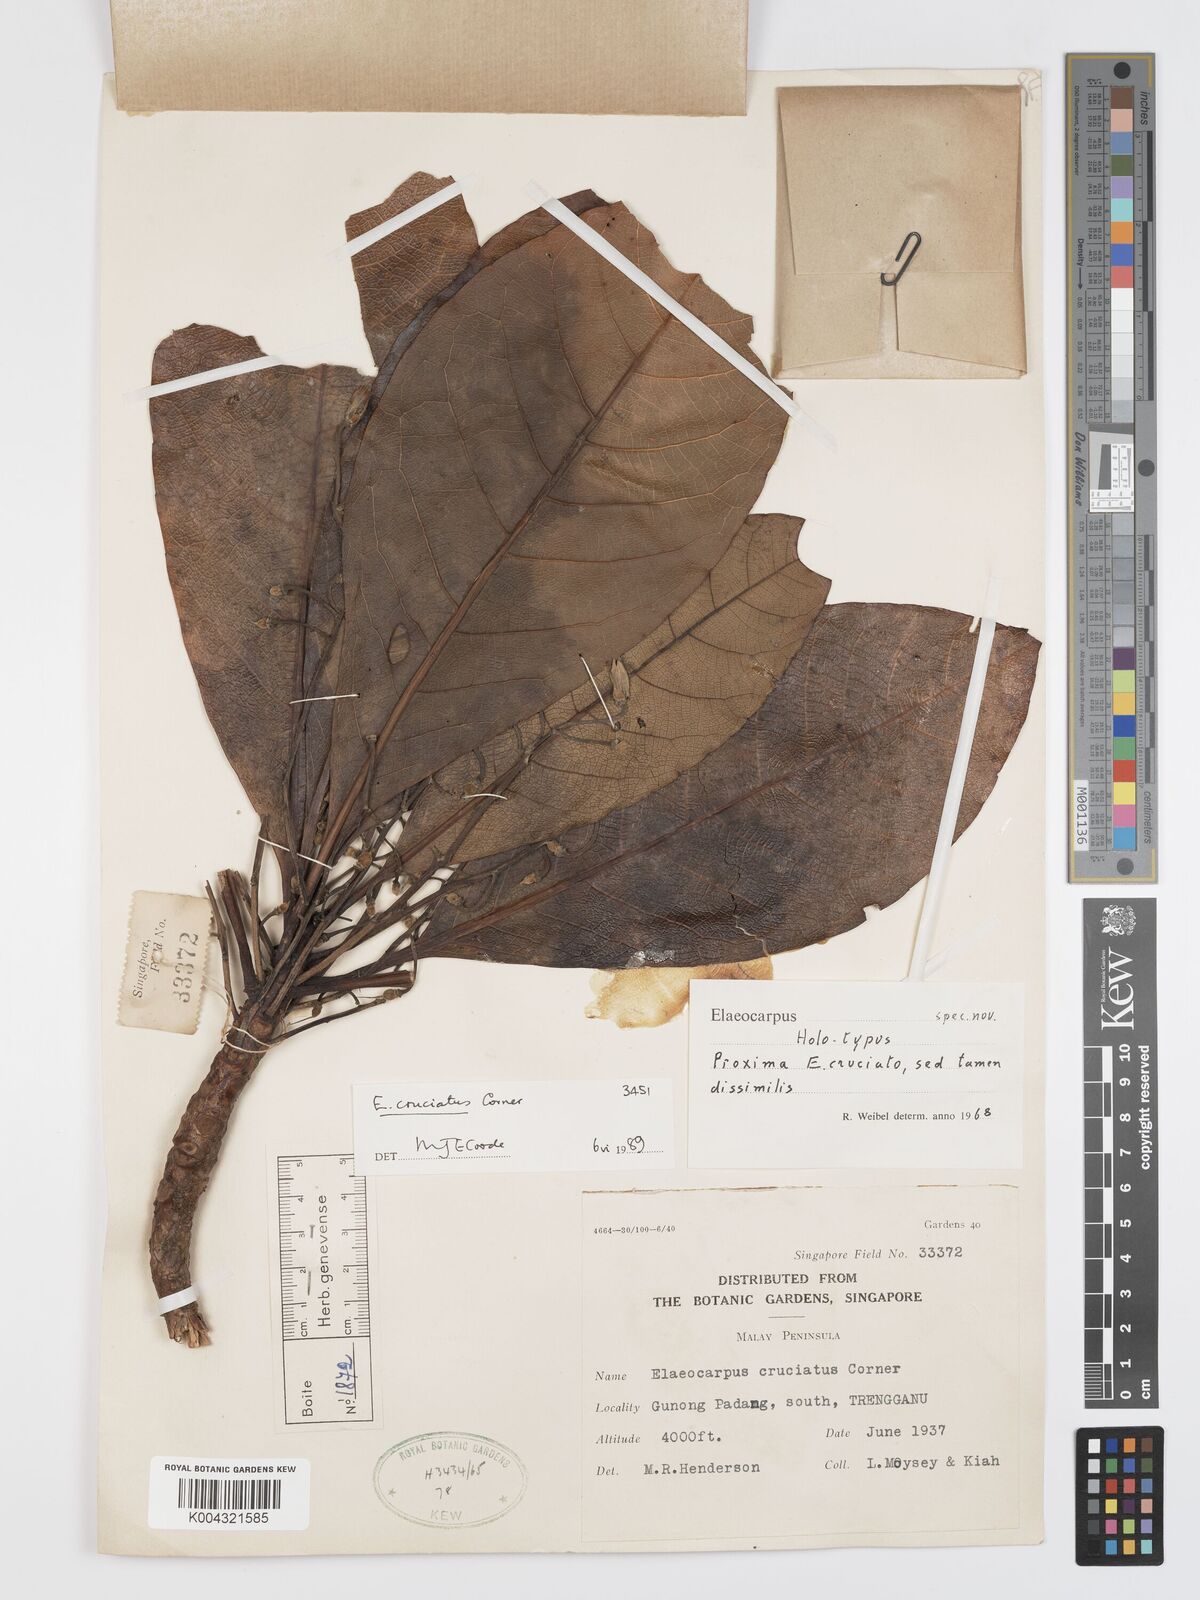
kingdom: Plantae
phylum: Tracheophyta
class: Magnoliopsida
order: Oxalidales
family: Elaeocarpaceae
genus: Elaeocarpus
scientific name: Elaeocarpus cruciatus
